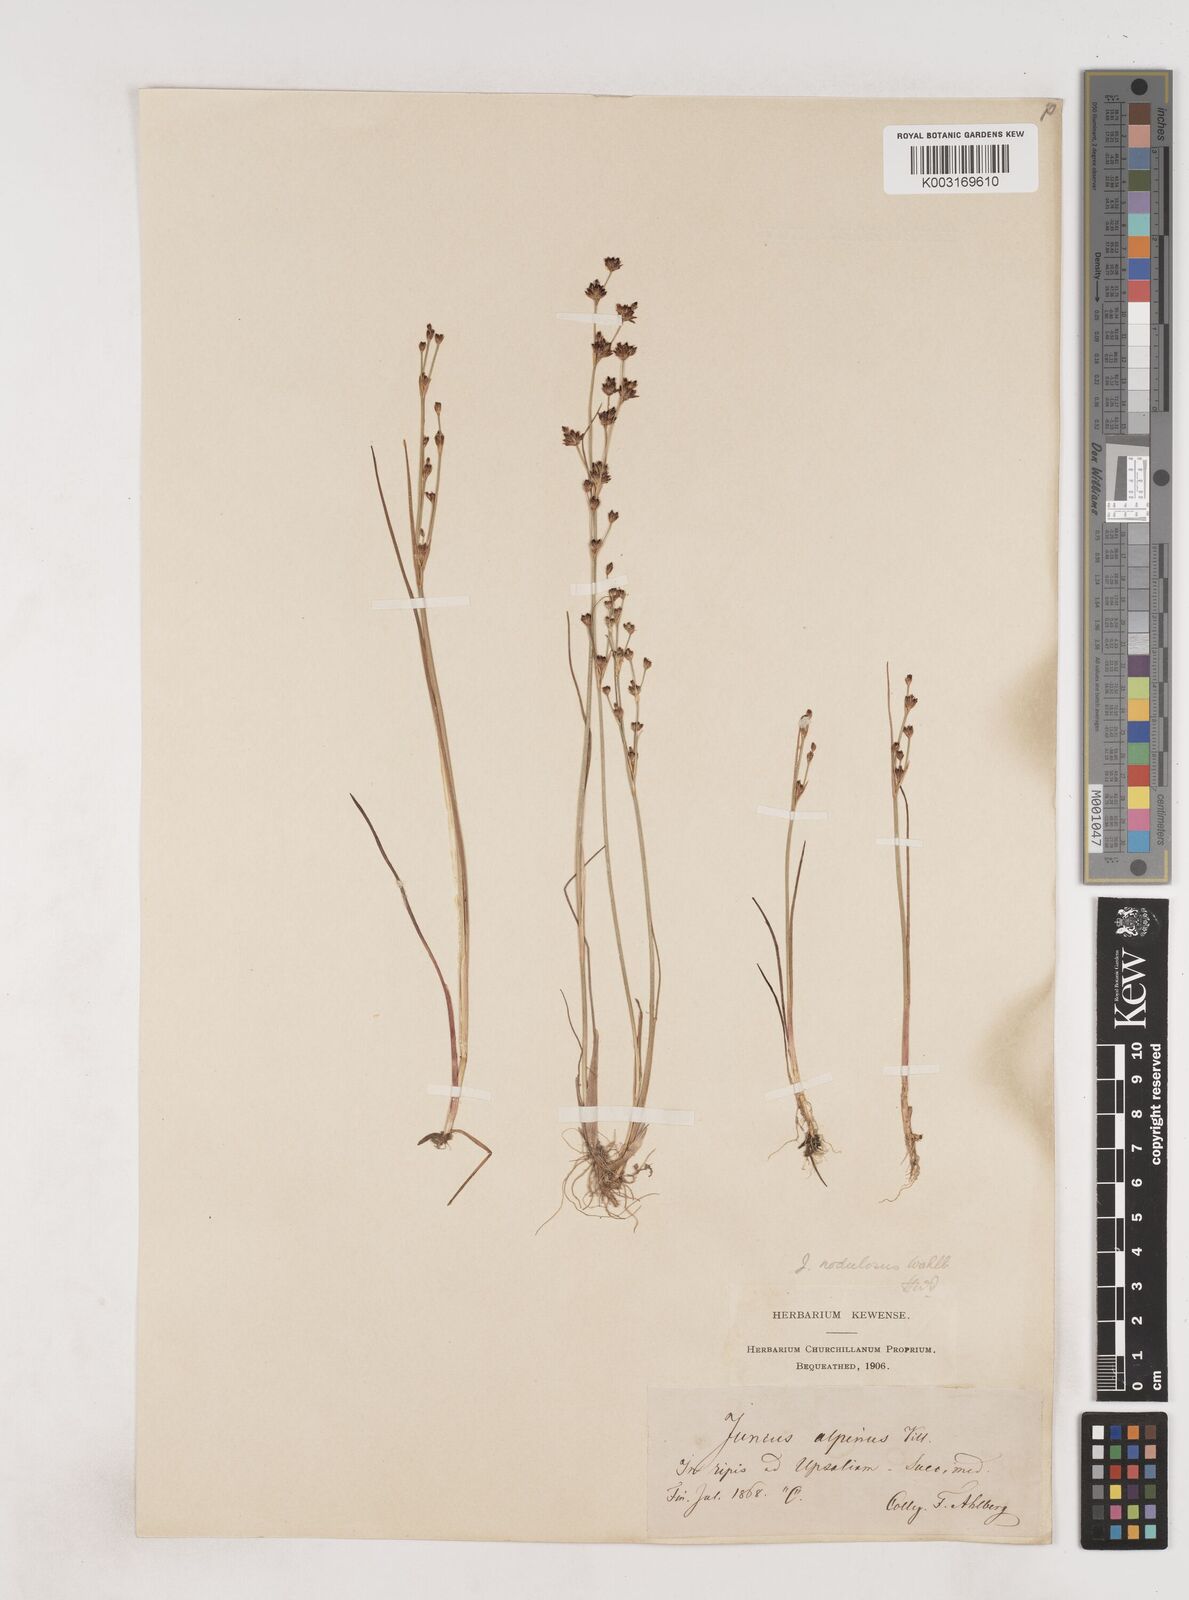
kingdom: Plantae
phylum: Tracheophyta
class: Liliopsida
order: Poales
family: Juncaceae
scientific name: Juncaceae
